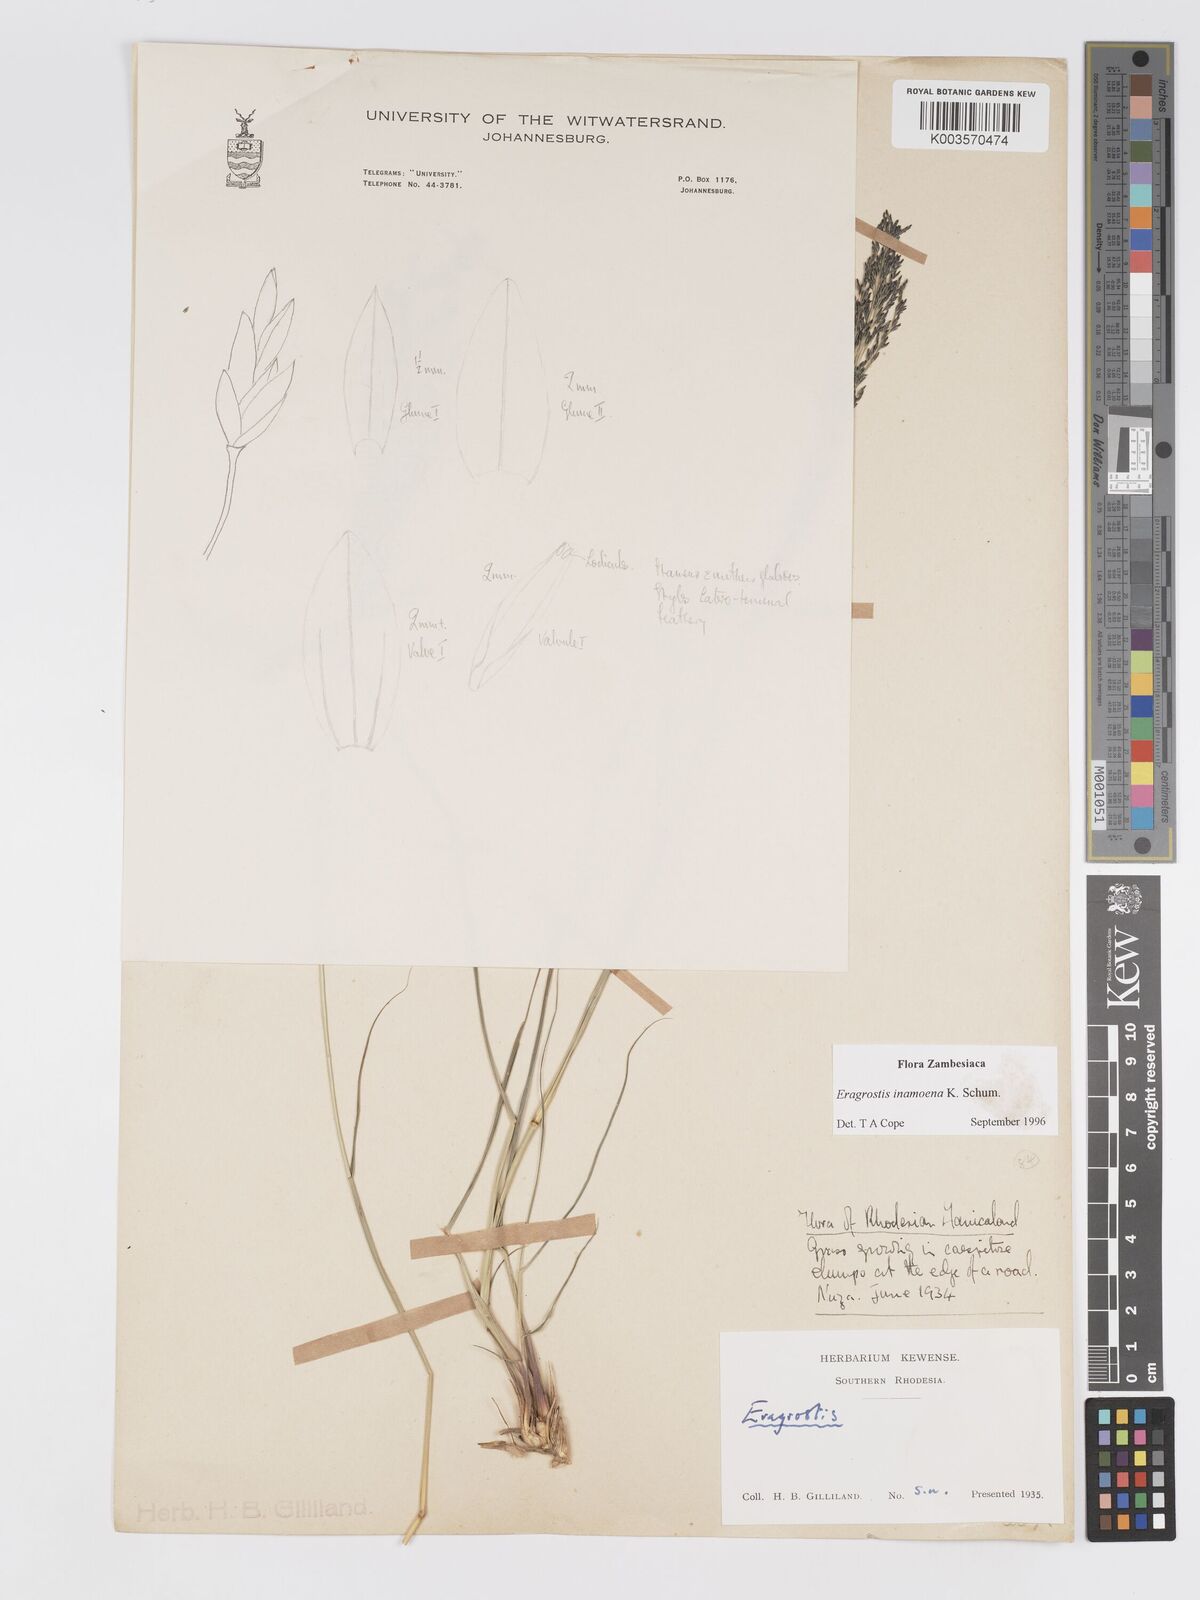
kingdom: Plantae
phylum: Tracheophyta
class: Liliopsida
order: Poales
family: Poaceae
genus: Eragrostis
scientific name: Eragrostis inamoena
